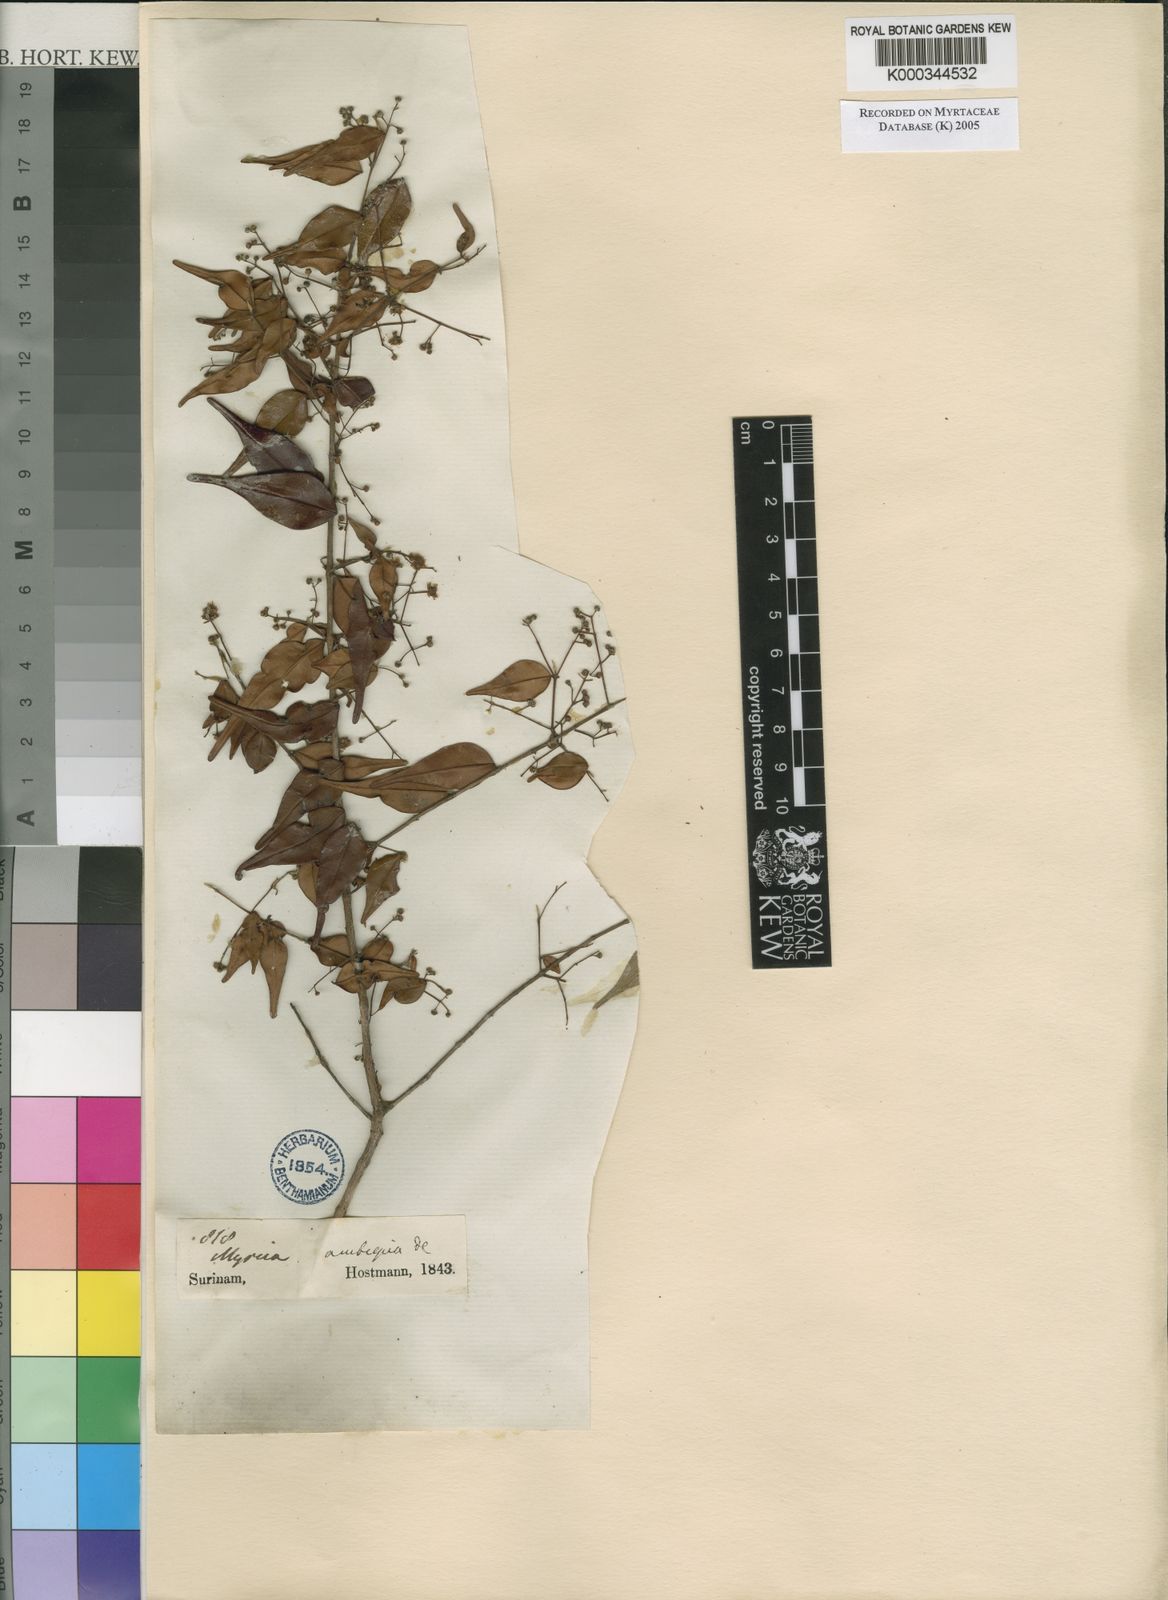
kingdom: Plantae
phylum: Tracheophyta
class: Magnoliopsida
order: Myrtales
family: Myrtaceae
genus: Myrcia
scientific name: Myrcia sylvatica
